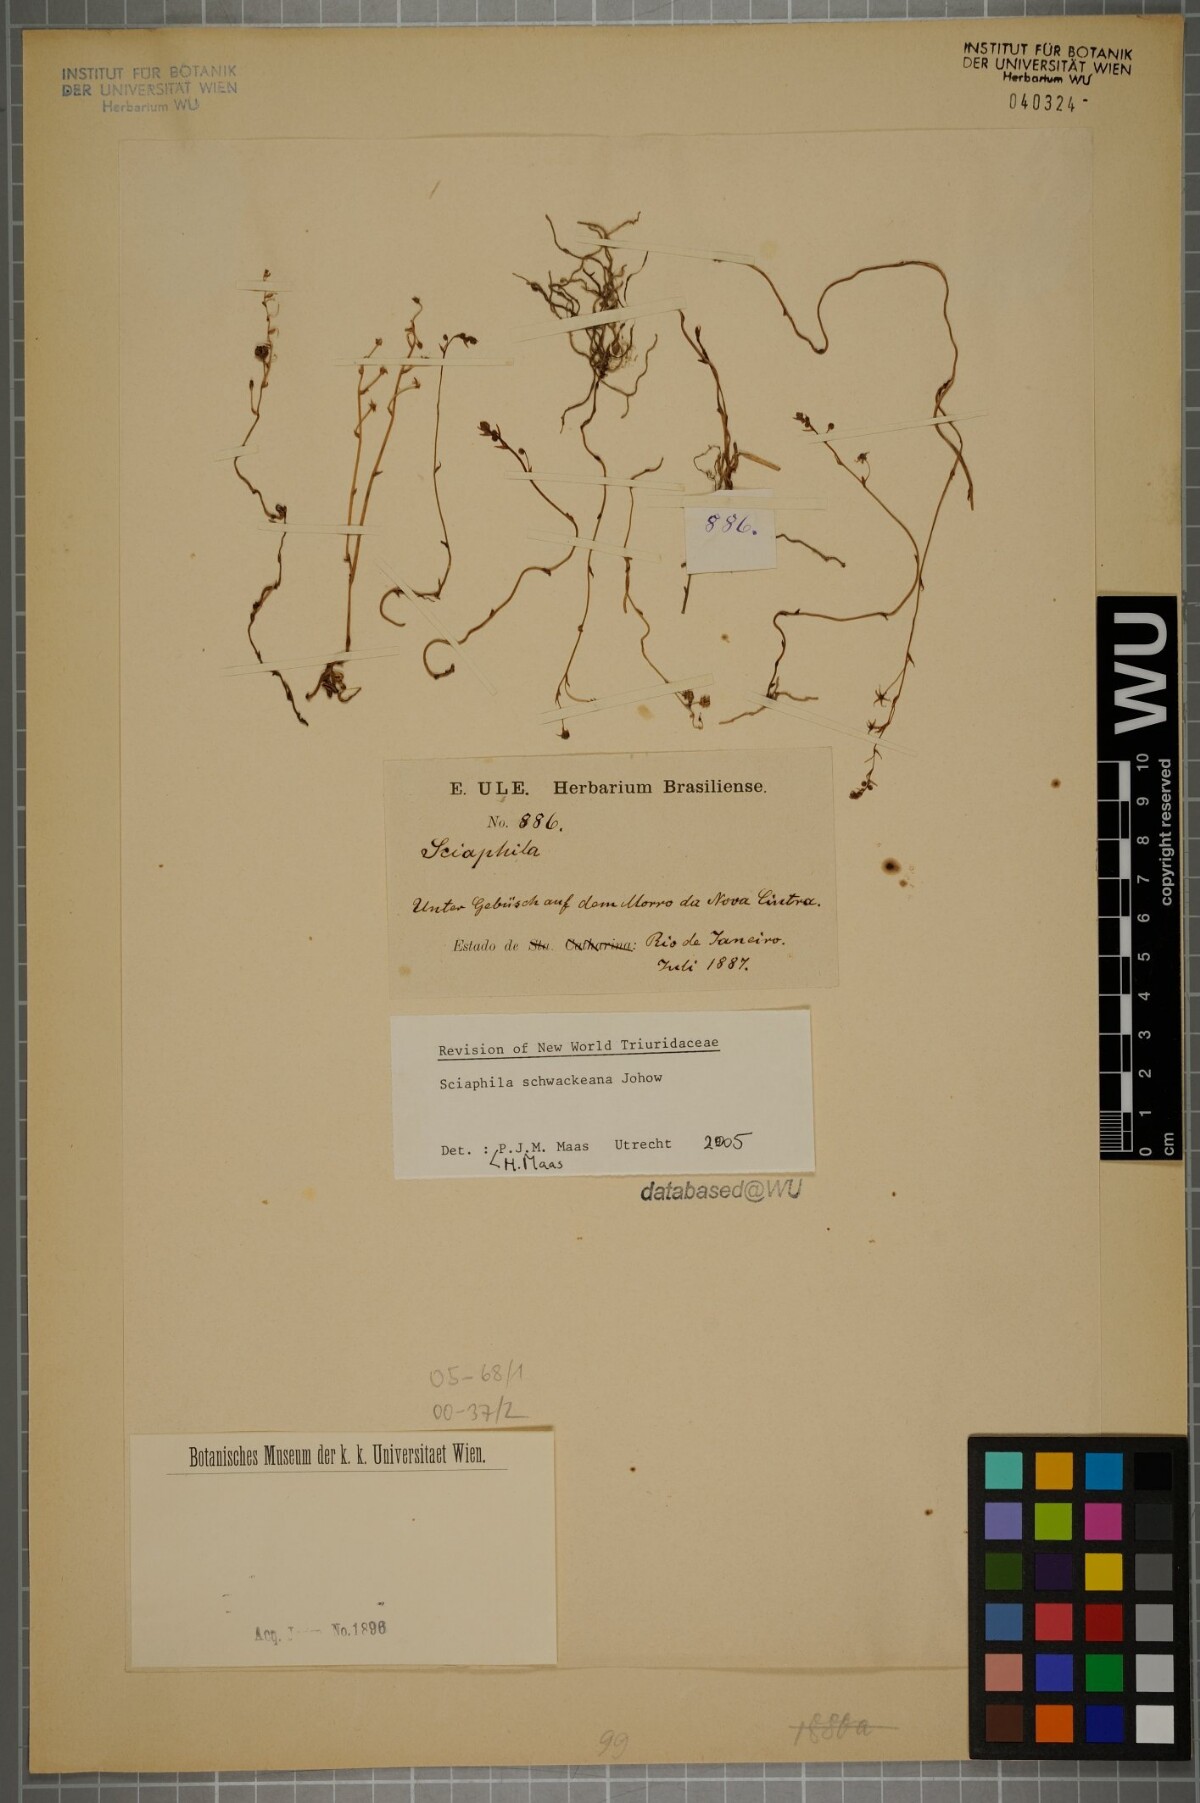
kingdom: Plantae
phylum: Tracheophyta
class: Liliopsida
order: Pandanales
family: Triuridaceae
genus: Sciaphila
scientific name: Sciaphila schwackeana
